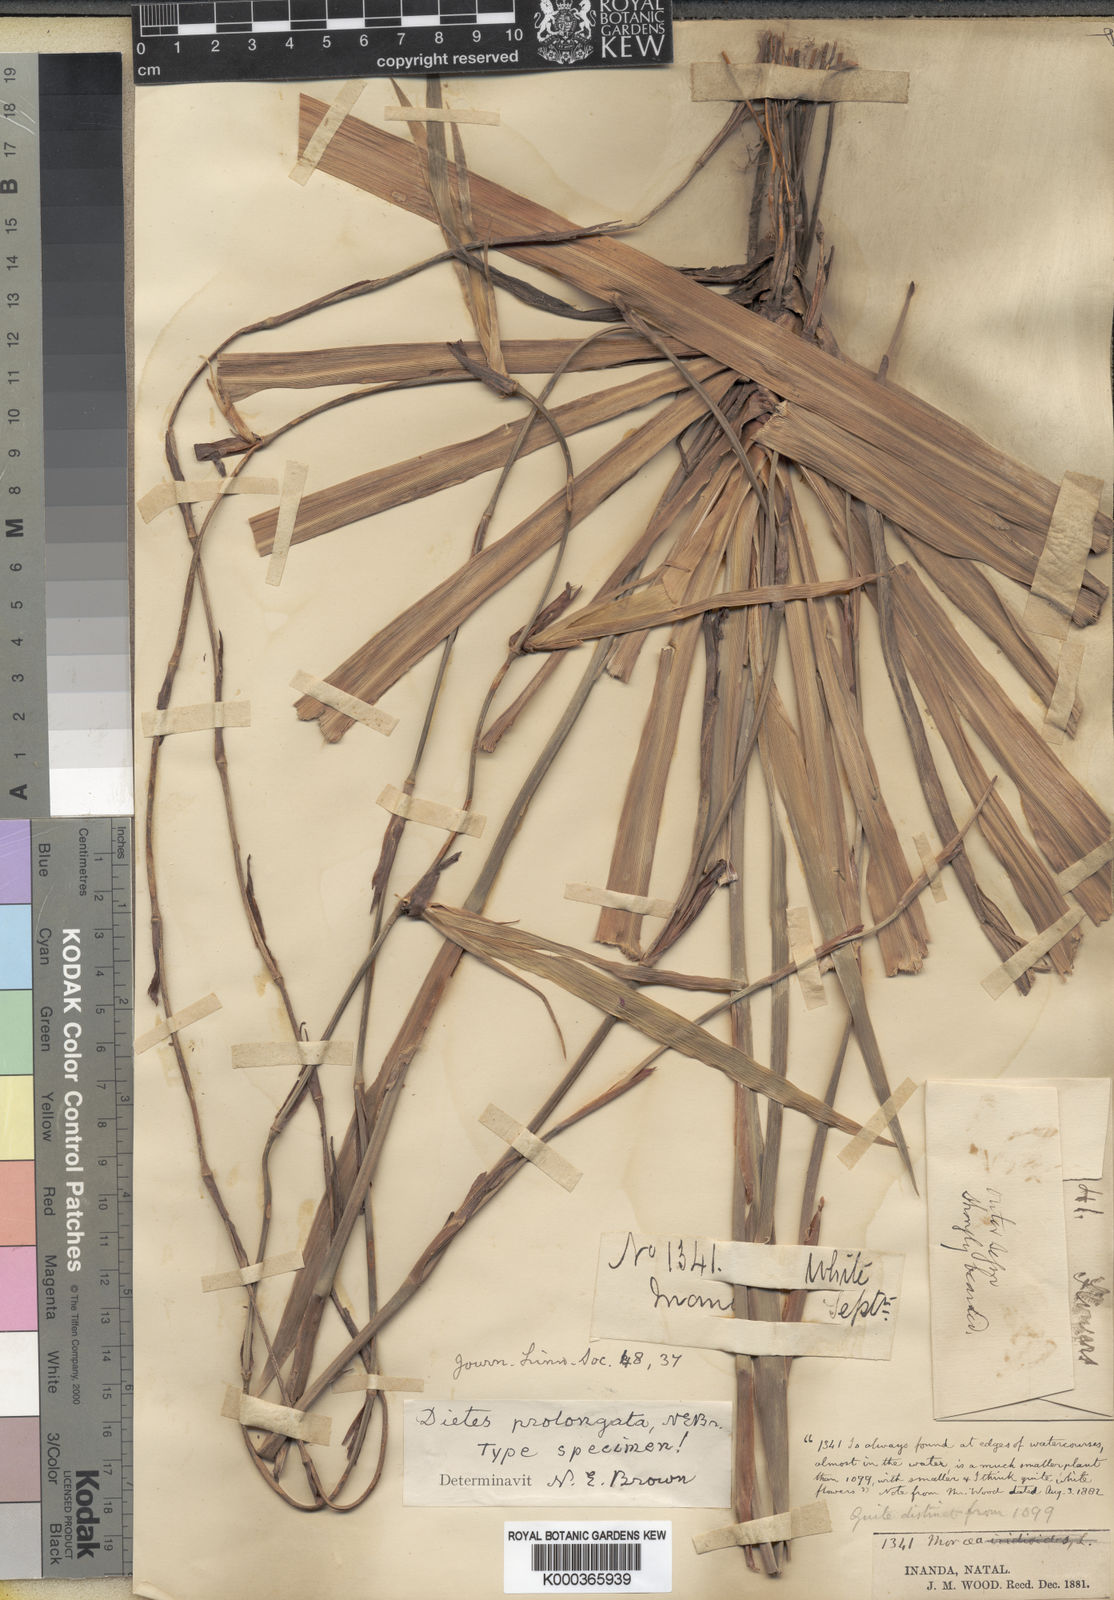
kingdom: Plantae
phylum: Tracheophyta
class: Liliopsida
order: Asparagales
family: Iridaceae
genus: Dietes
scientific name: Dietes iridioides
